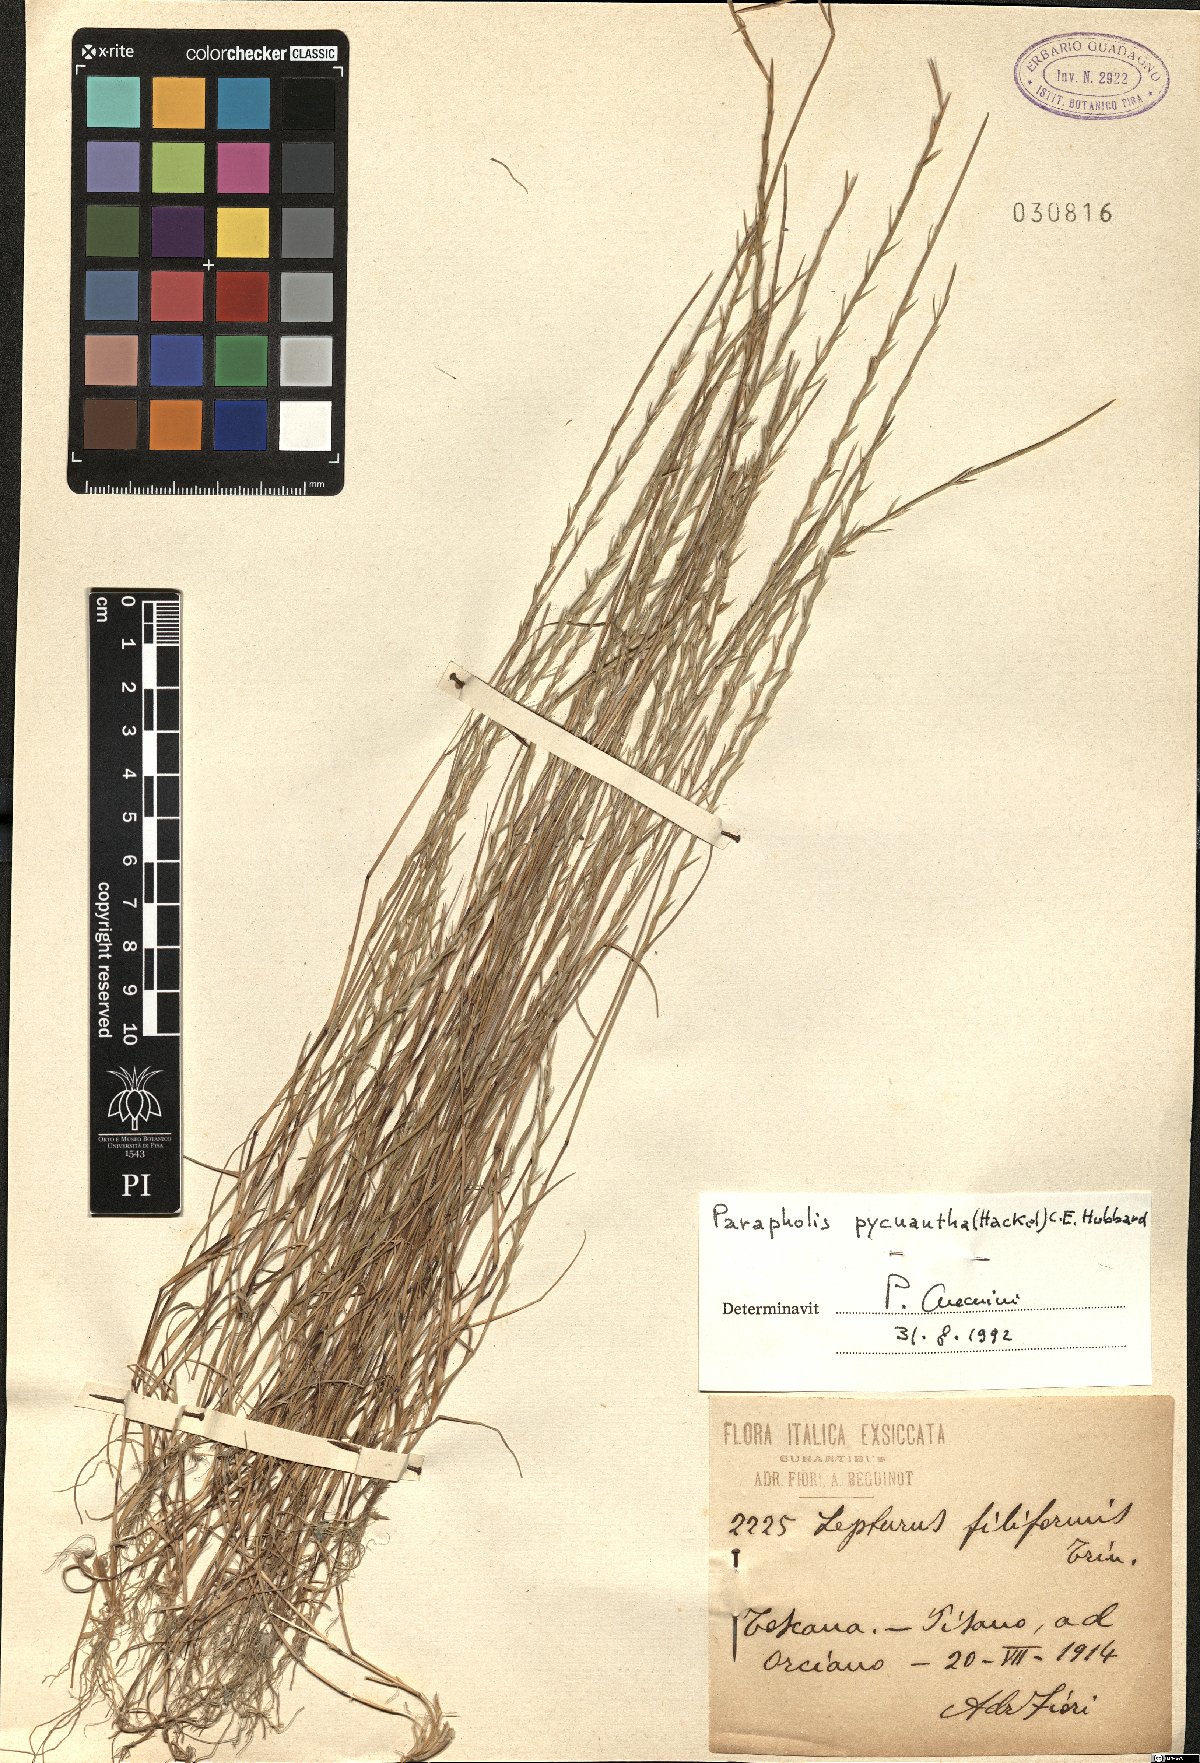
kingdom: Plantae
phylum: Tracheophyta
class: Liliopsida
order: Poales
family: Poaceae
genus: Parapholis
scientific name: Parapholis pycnantha
